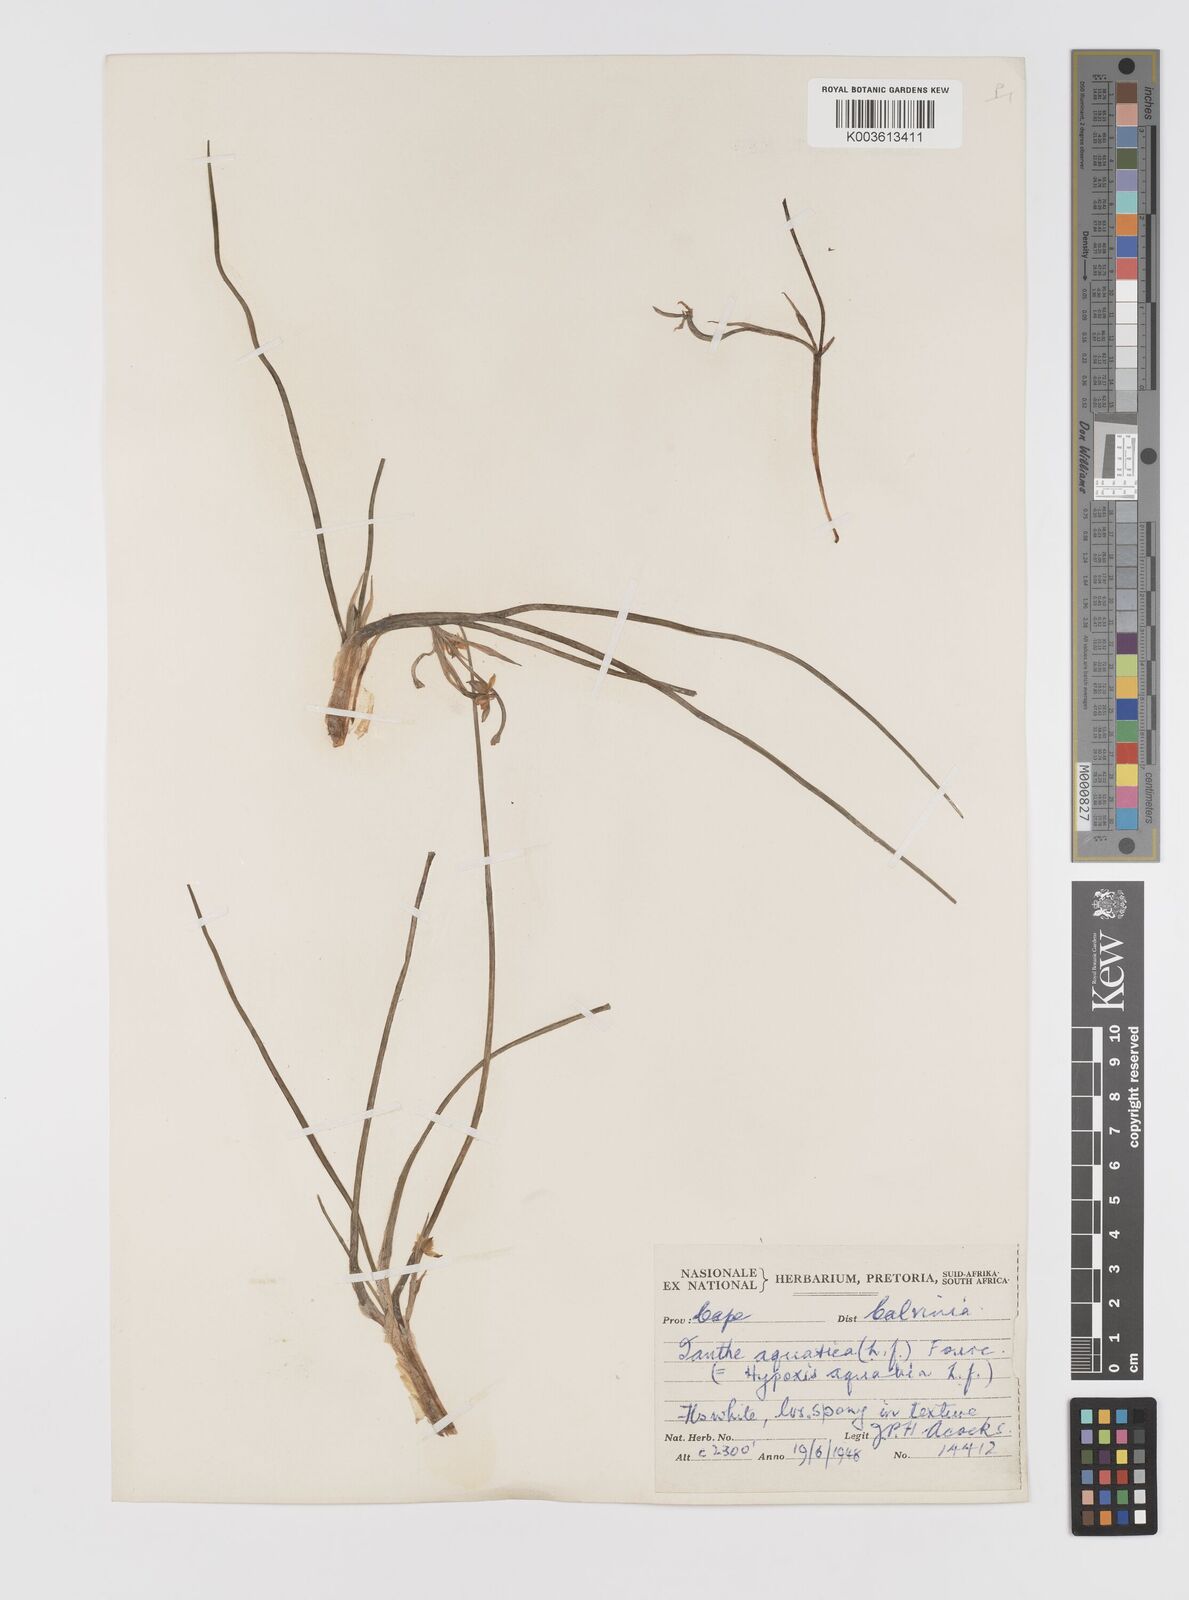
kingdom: Plantae
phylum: Tracheophyta
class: Liliopsida
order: Asparagales
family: Hypoxidaceae
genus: Pauridia
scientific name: Pauridia aquatica
